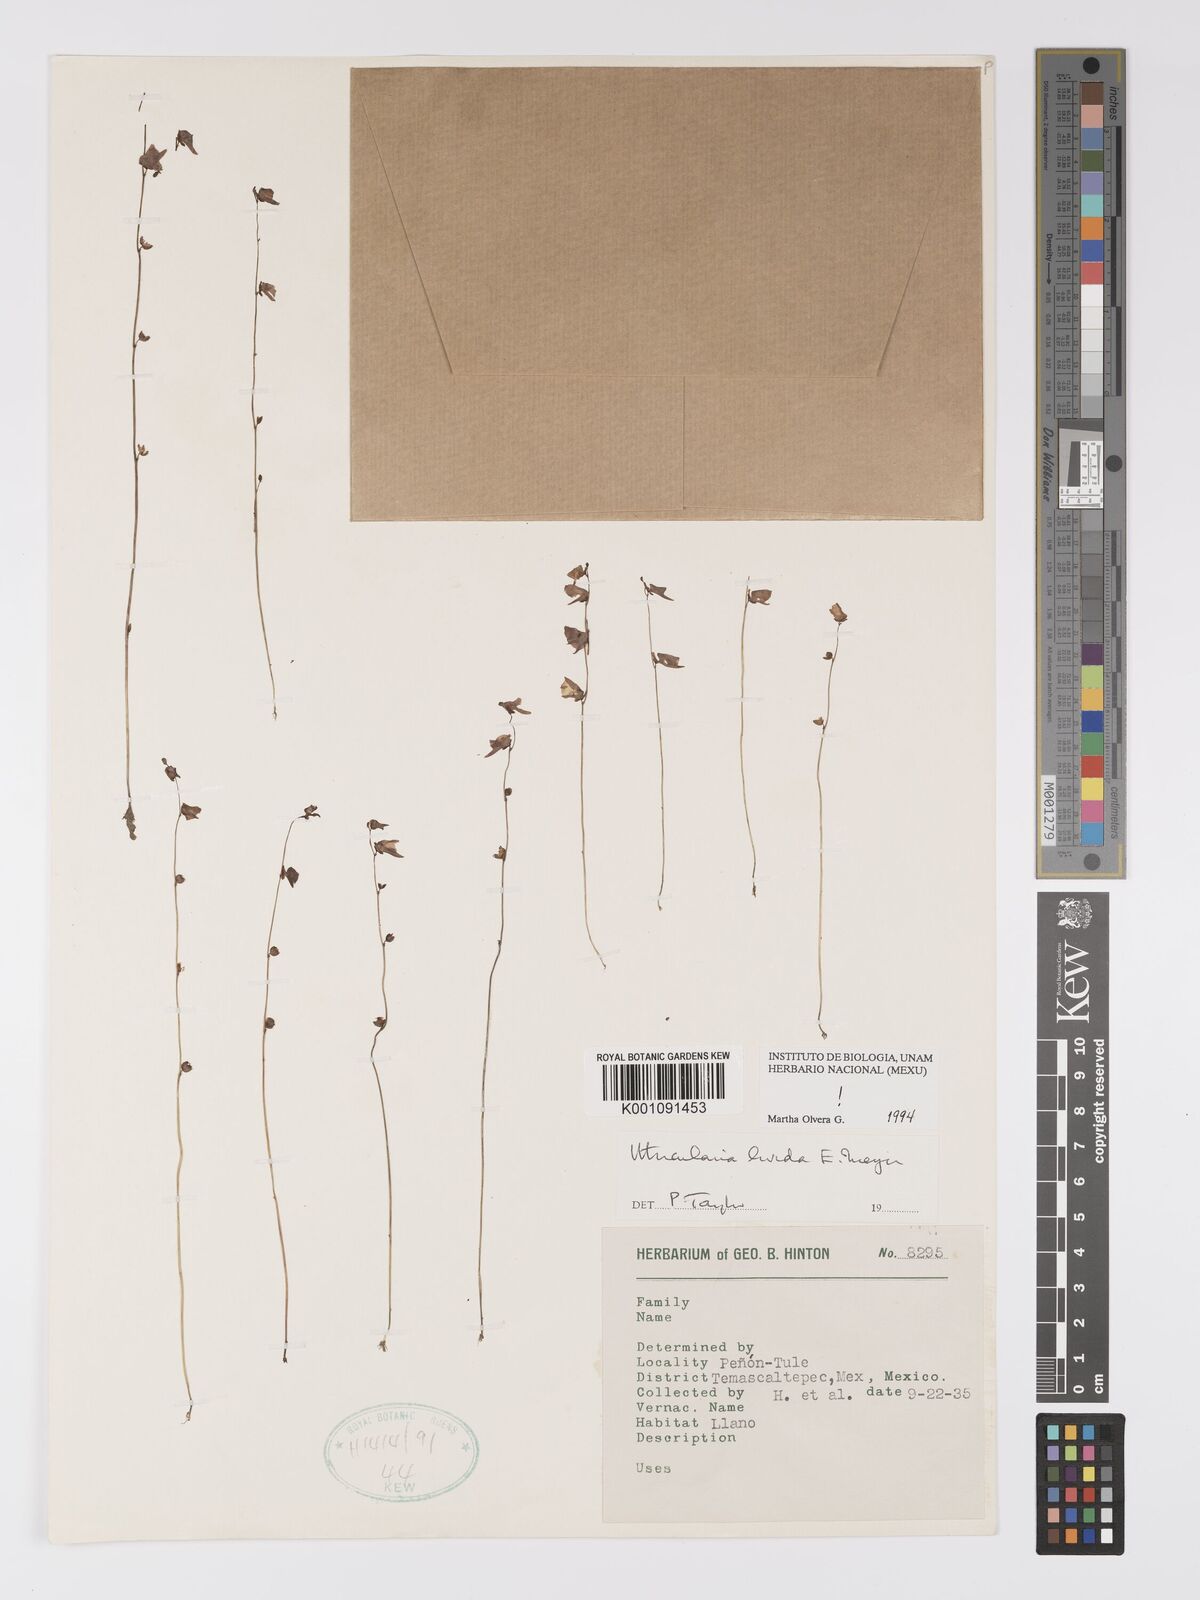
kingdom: Plantae
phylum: Tracheophyta
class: Magnoliopsida
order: Lamiales
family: Lentibulariaceae
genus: Utricularia
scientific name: Utricularia livida
